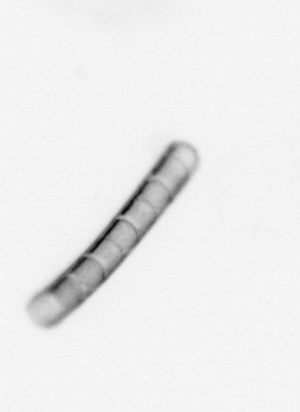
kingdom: Chromista
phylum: Ochrophyta
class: Bacillariophyceae
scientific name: Bacillariophyceae
